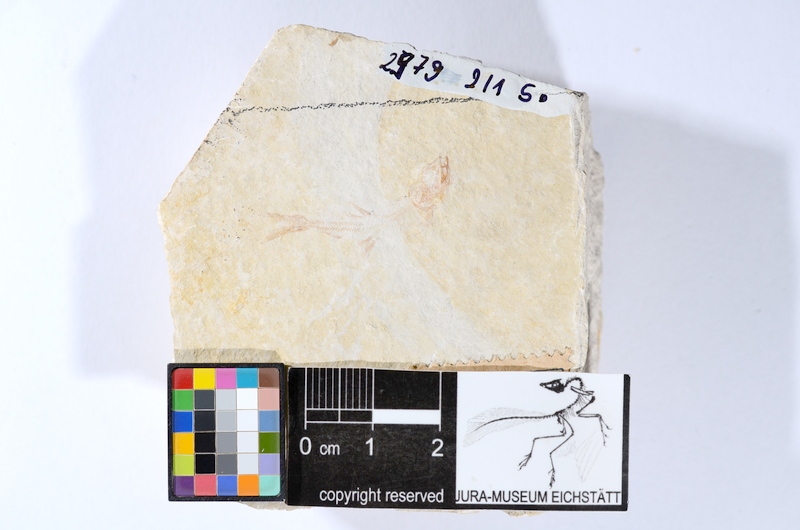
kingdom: Animalia
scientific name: Animalia
